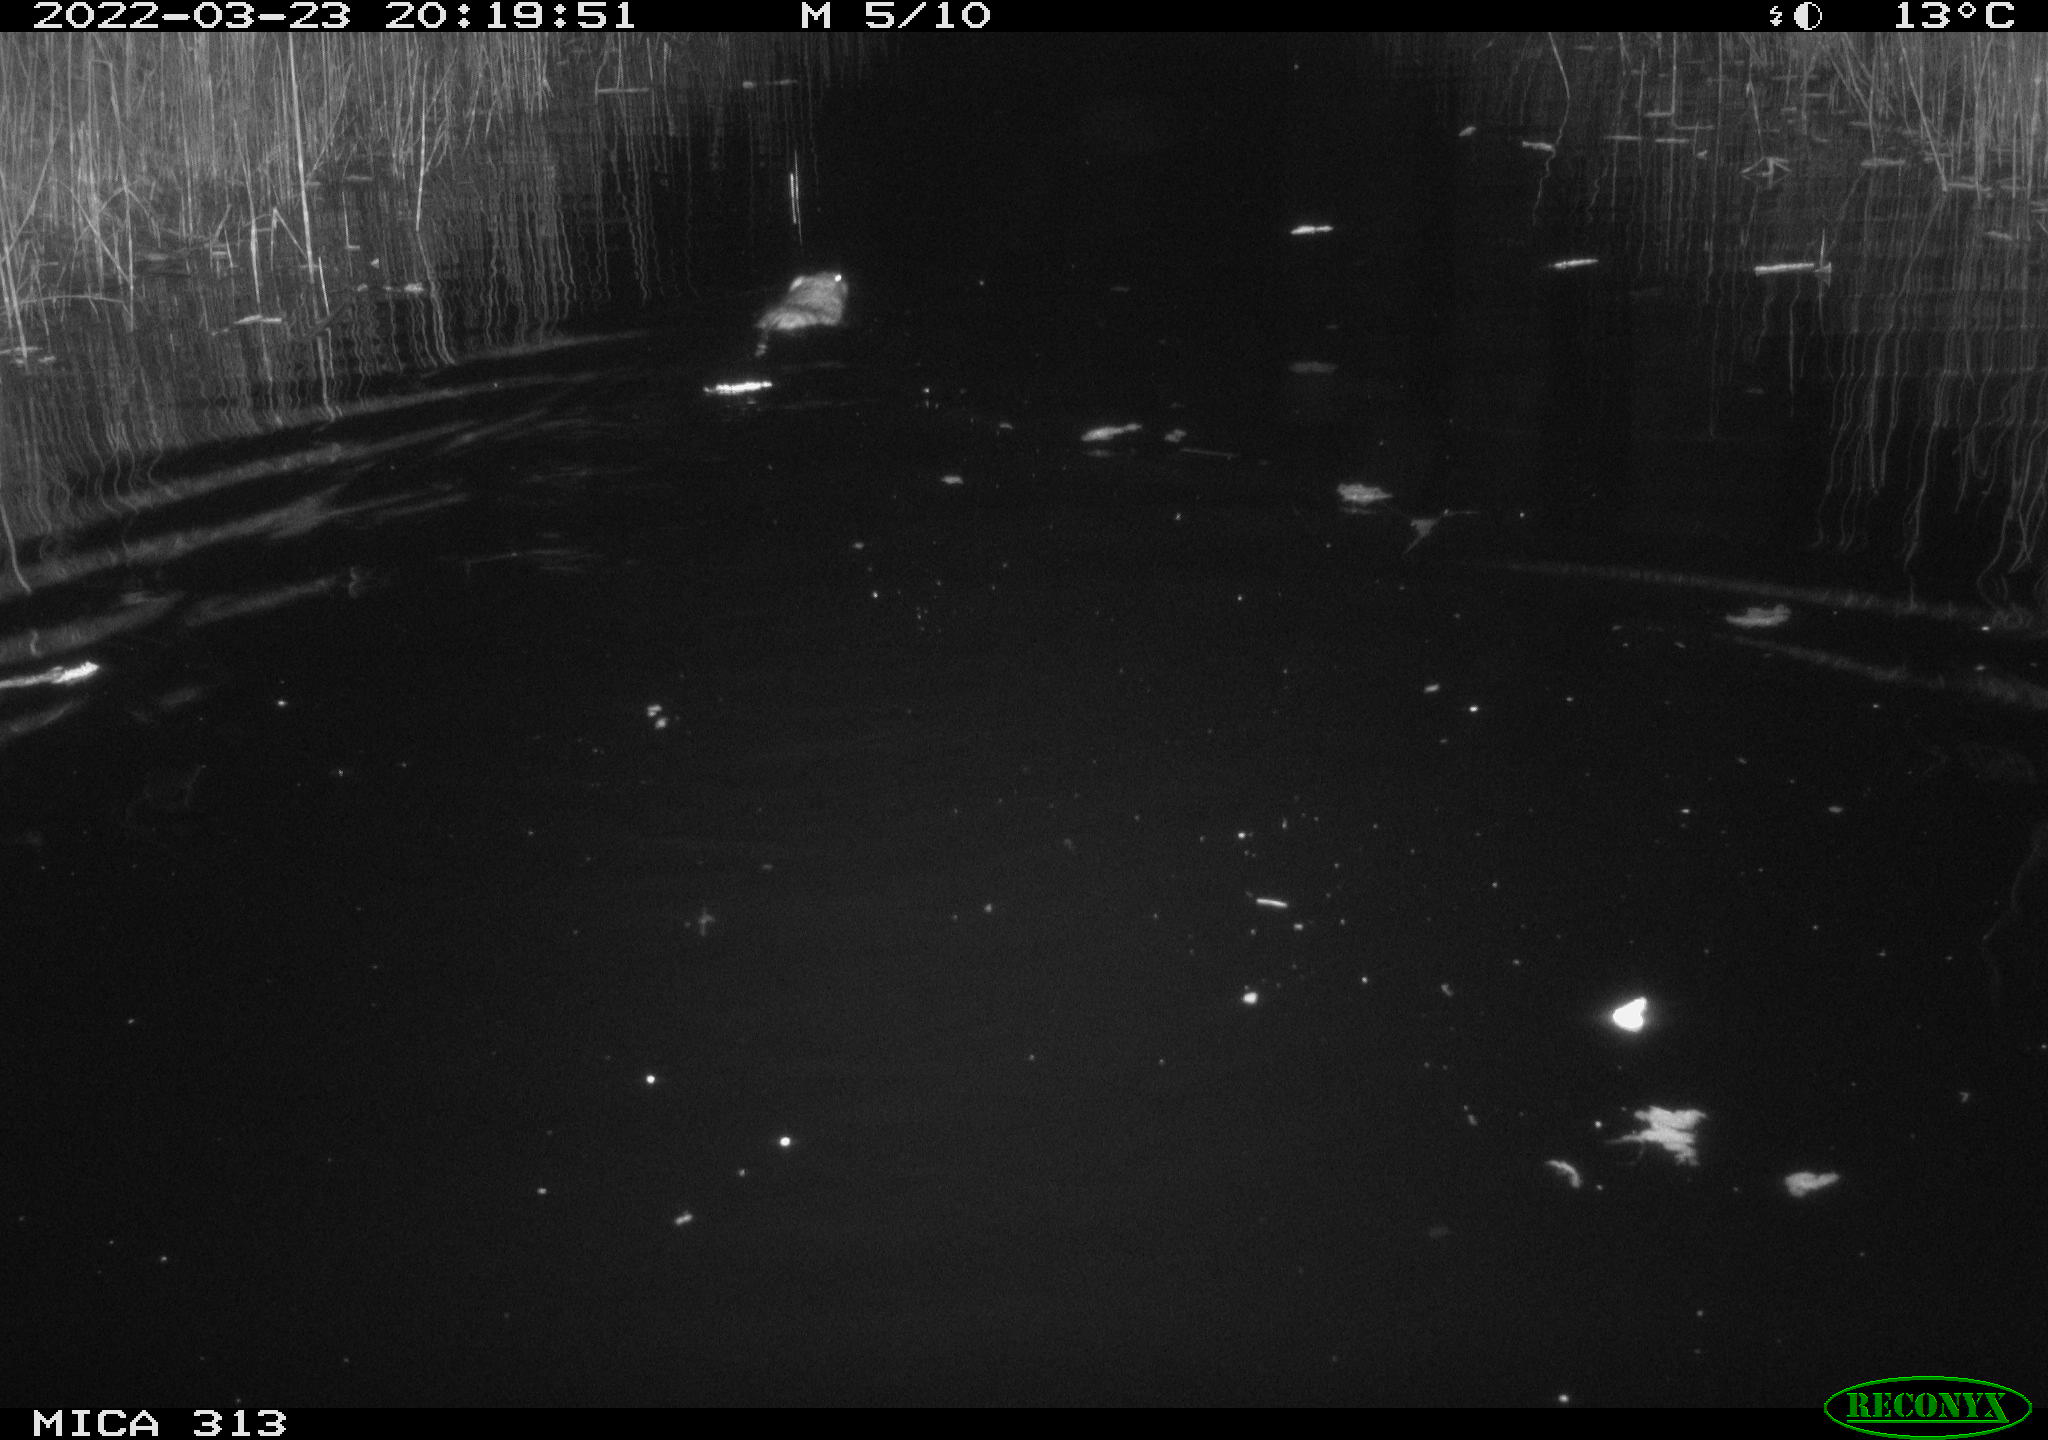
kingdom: Animalia
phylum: Chordata
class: Mammalia
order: Rodentia
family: Cricetidae
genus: Ondatra
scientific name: Ondatra zibethicus
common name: Muskrat
